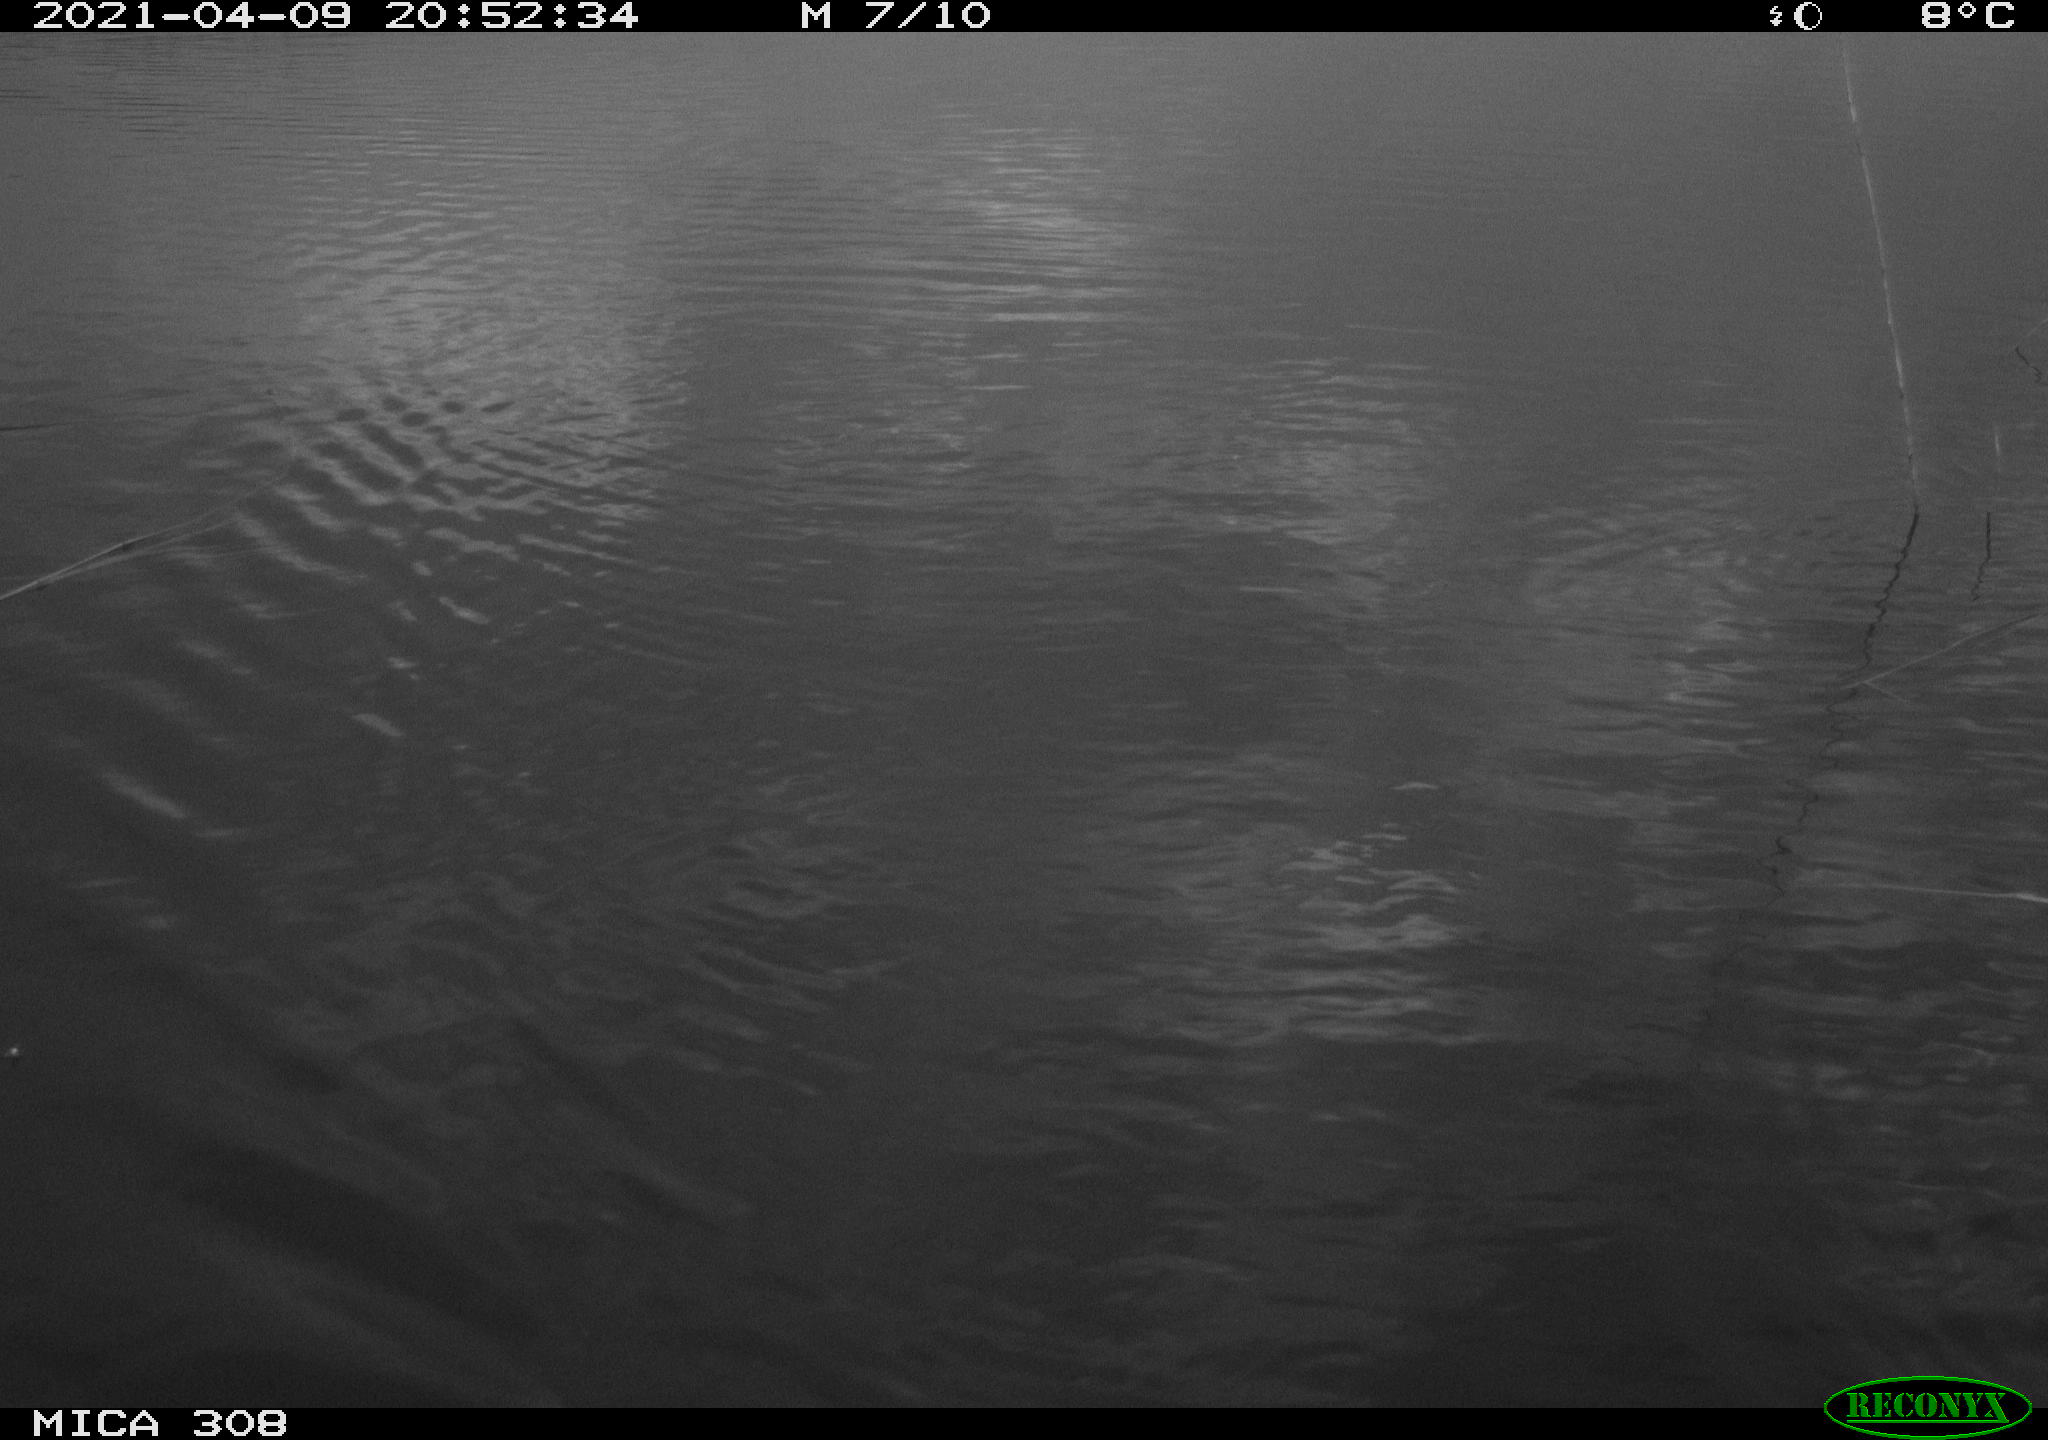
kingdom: Animalia
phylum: Chordata
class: Aves
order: Anseriformes
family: Anatidae
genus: Anas
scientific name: Anas platyrhynchos
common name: Mallard
